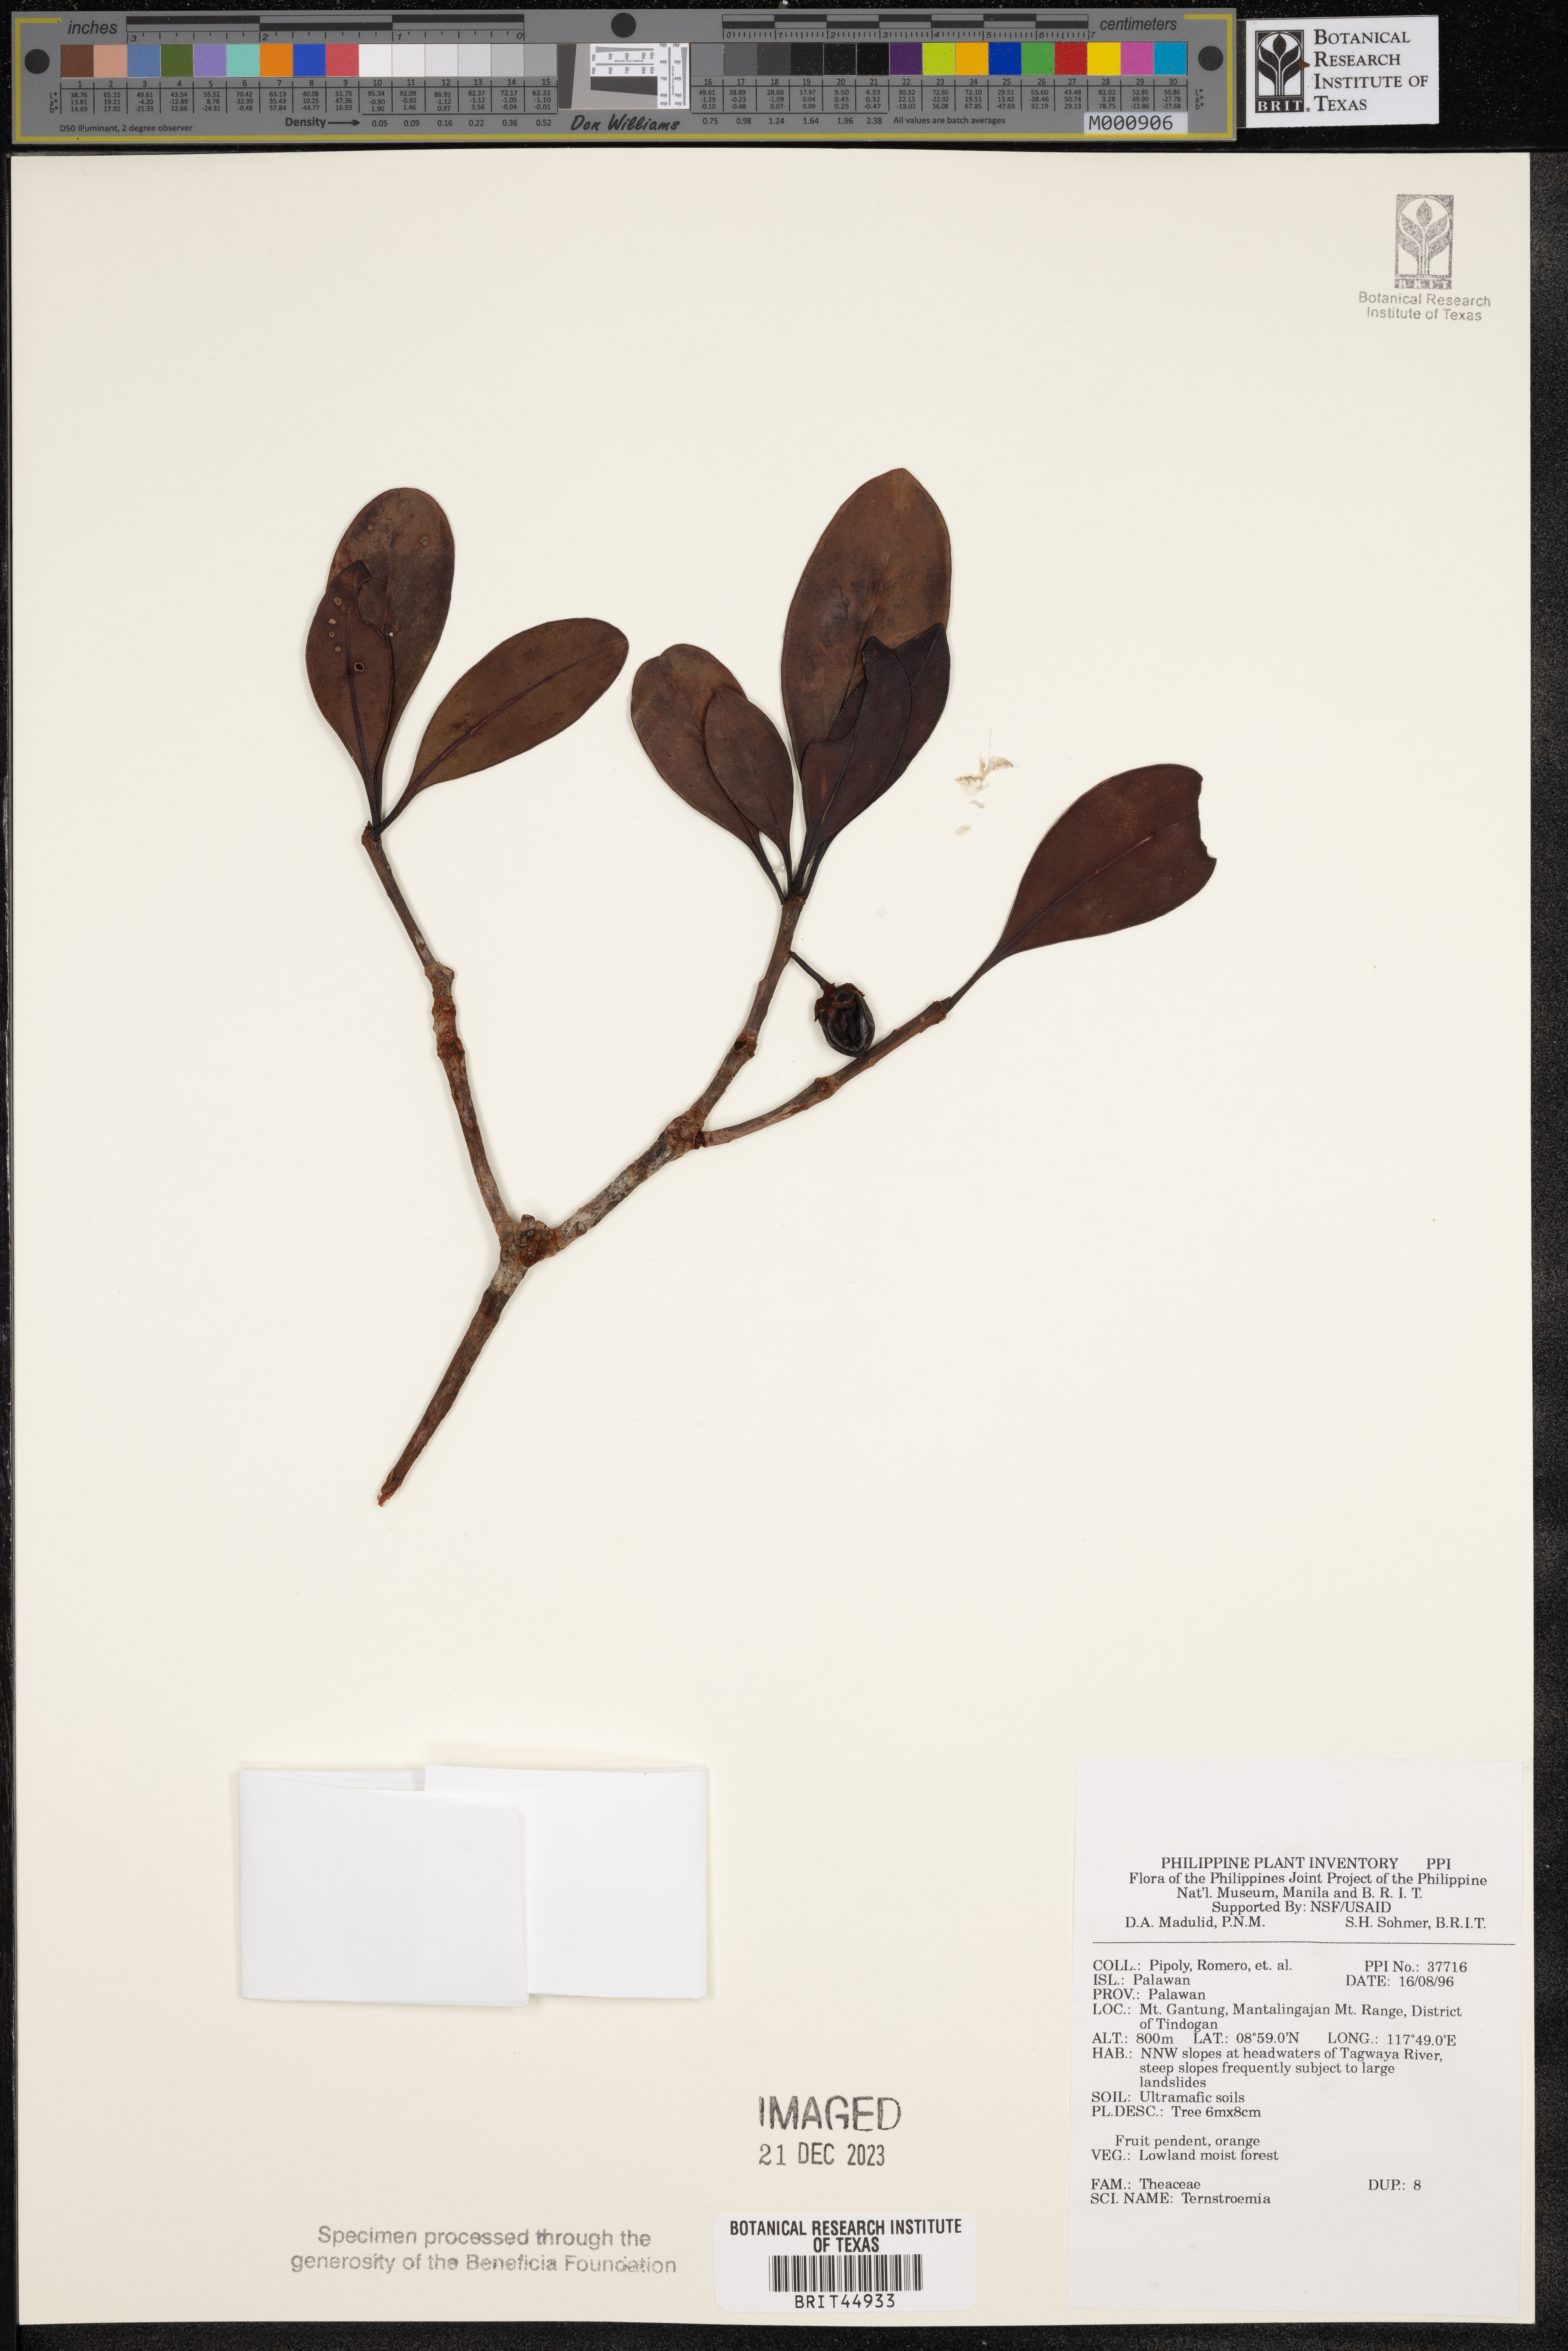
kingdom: Plantae
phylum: Tracheophyta
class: Magnoliopsida
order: Ericales
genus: Ternstroemia
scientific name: Ternstroemia
